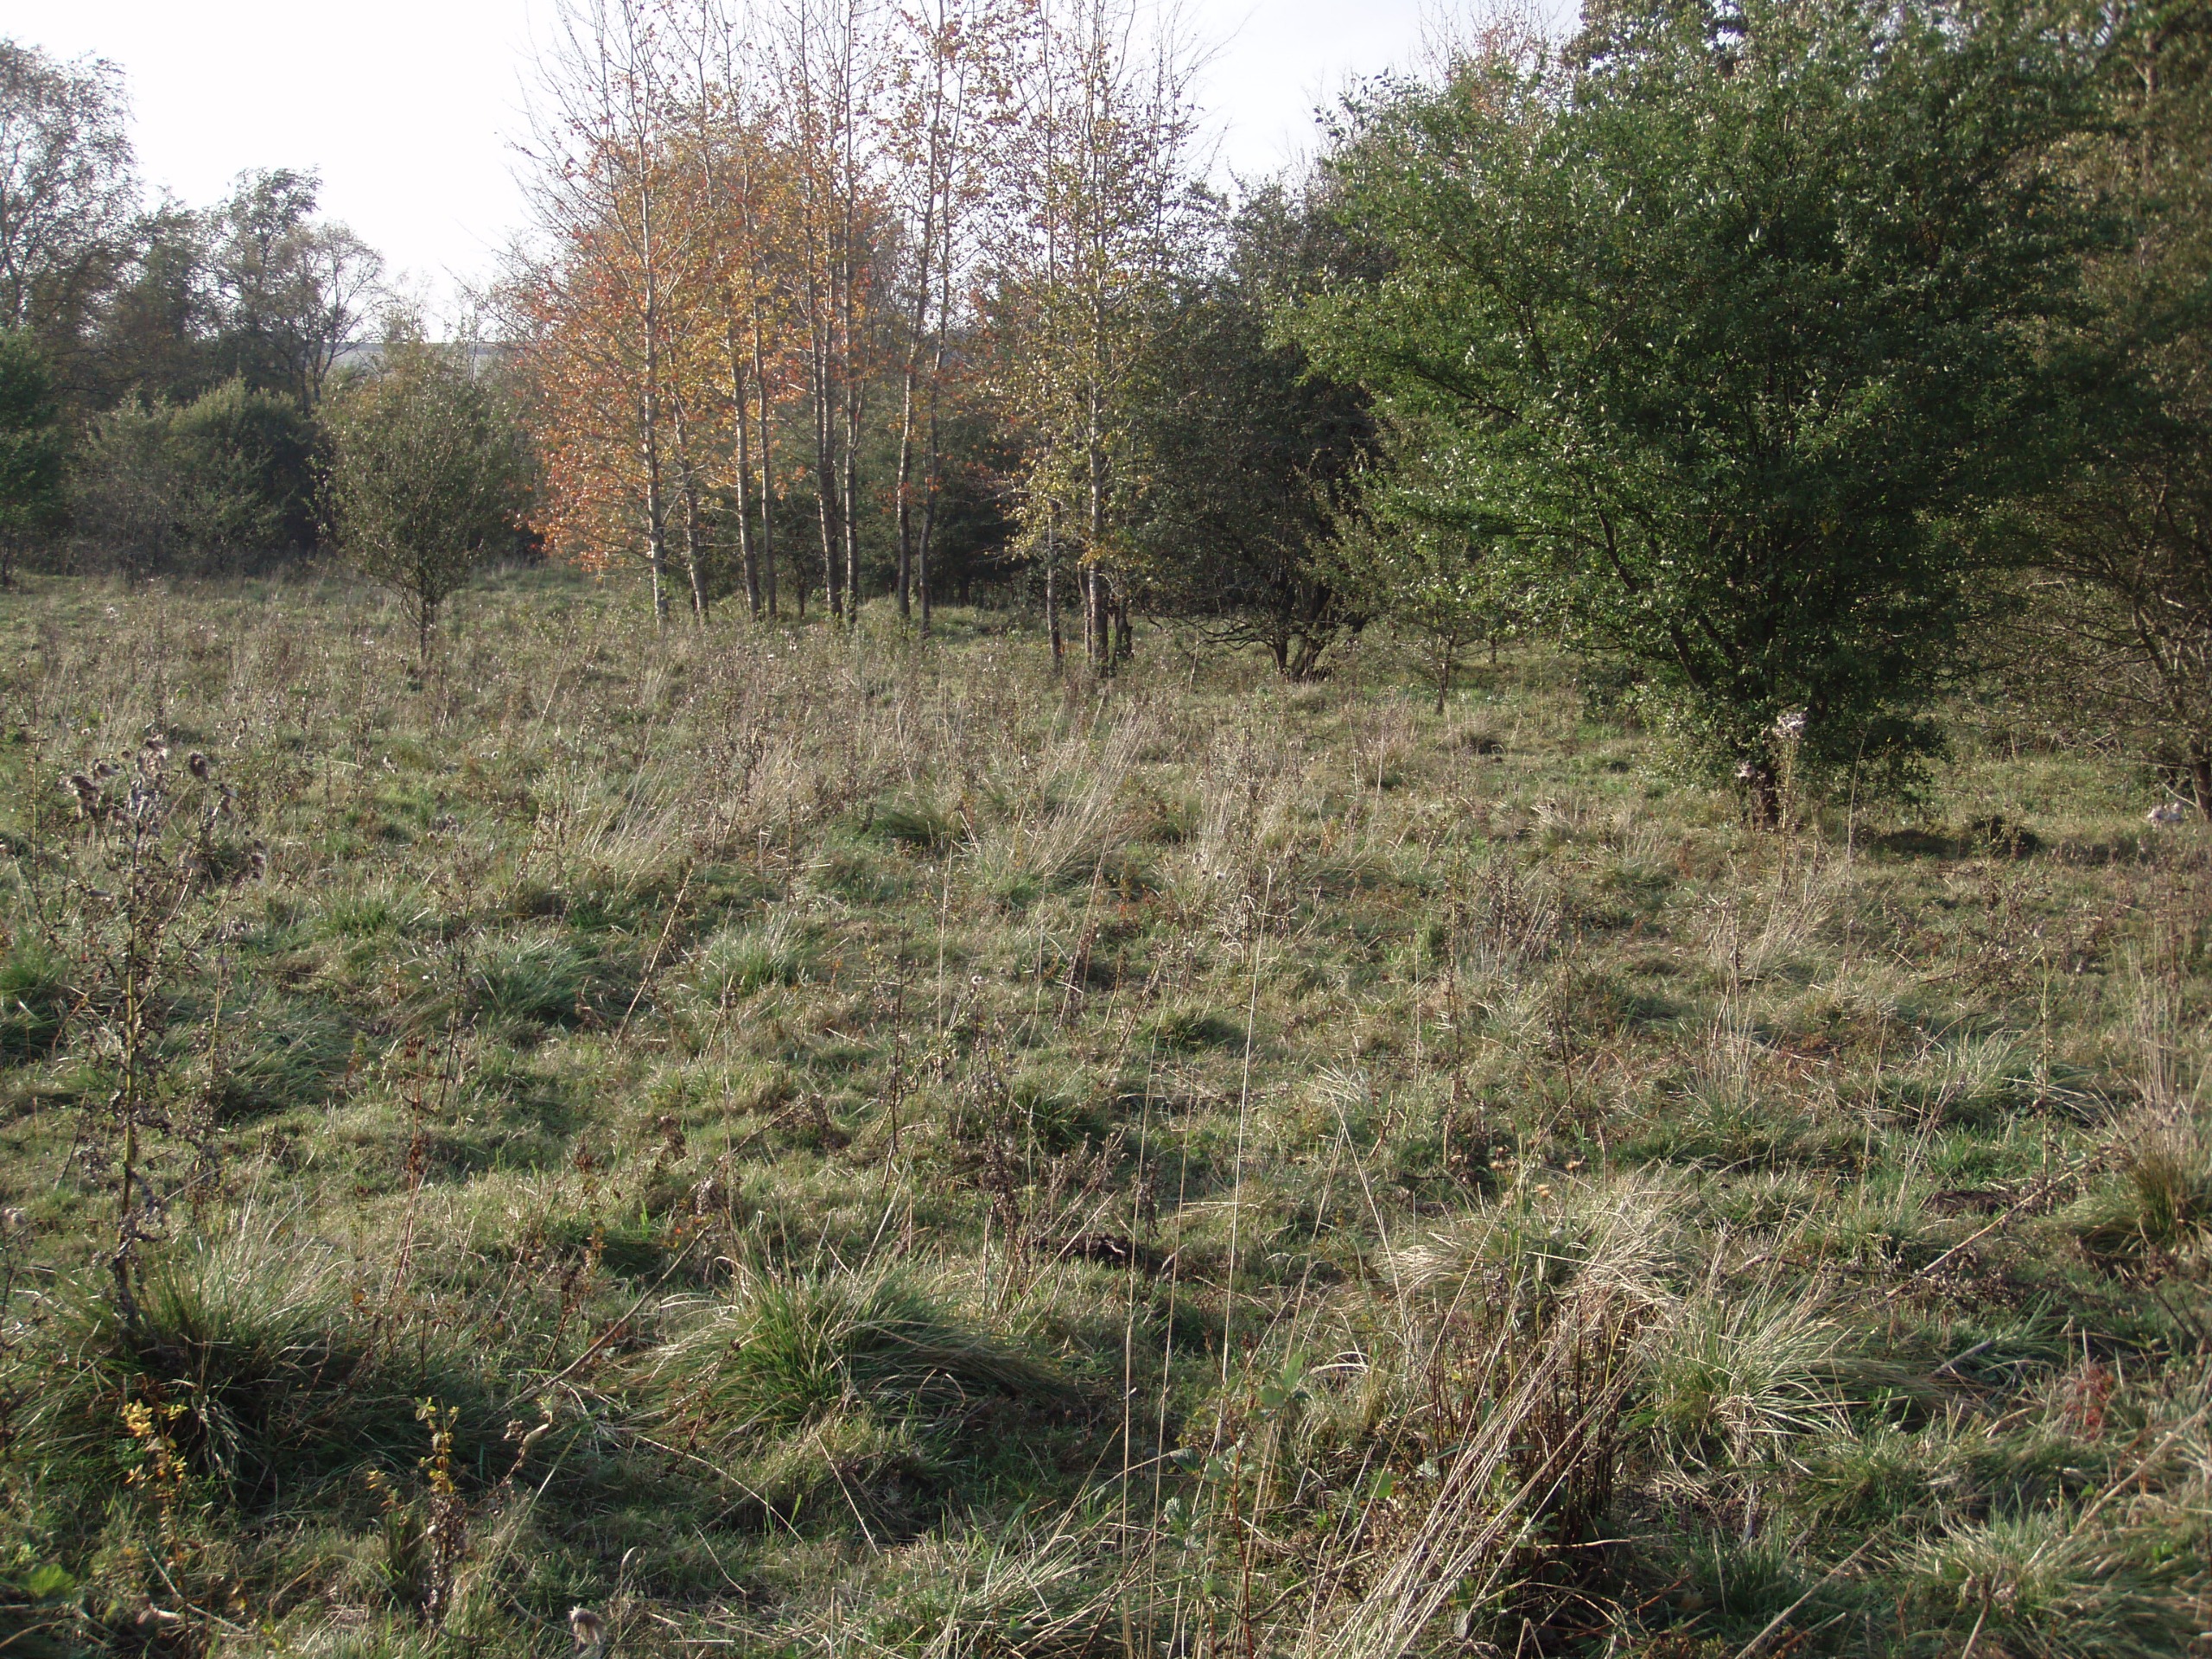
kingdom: Plantae
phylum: Tracheophyta
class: Magnoliopsida
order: Asterales
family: Asteraceae
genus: Serratula
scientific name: Serratula tinctoria
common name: Eng-skær
